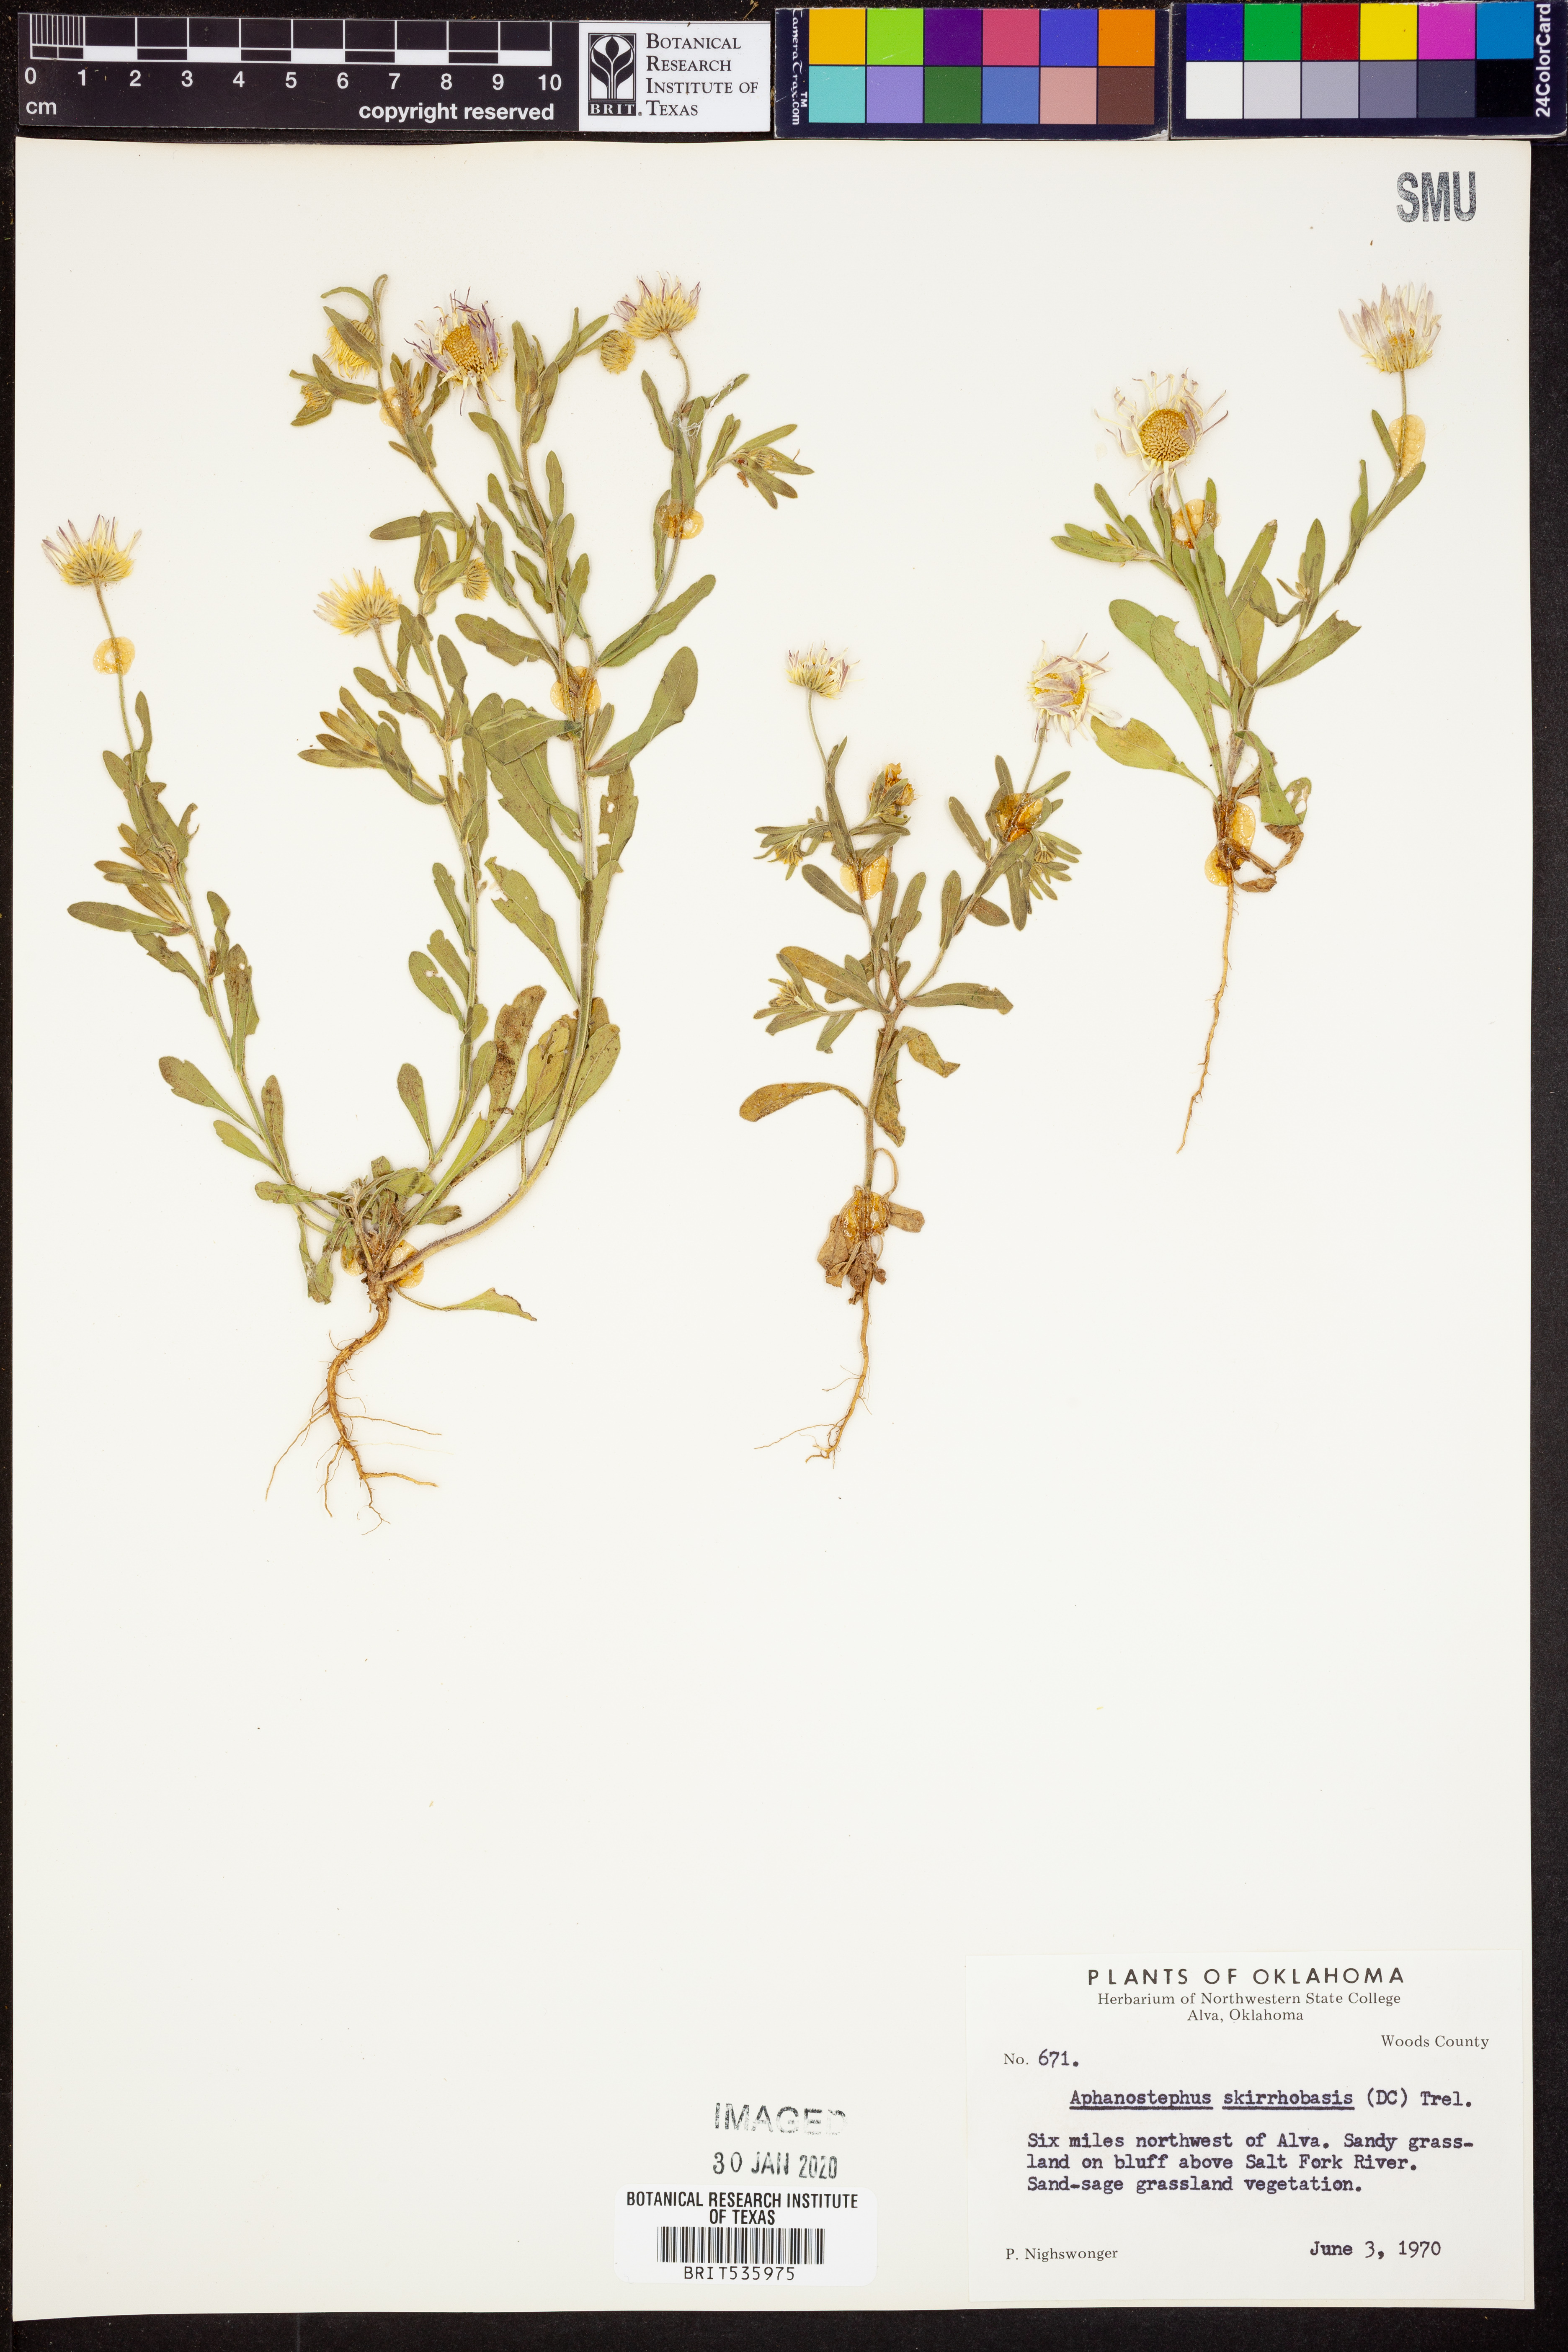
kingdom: Plantae
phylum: Tracheophyta
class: Magnoliopsida
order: Asterales
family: Asteraceae
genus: Aphanostephus
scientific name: Aphanostephus skirrhobasis
